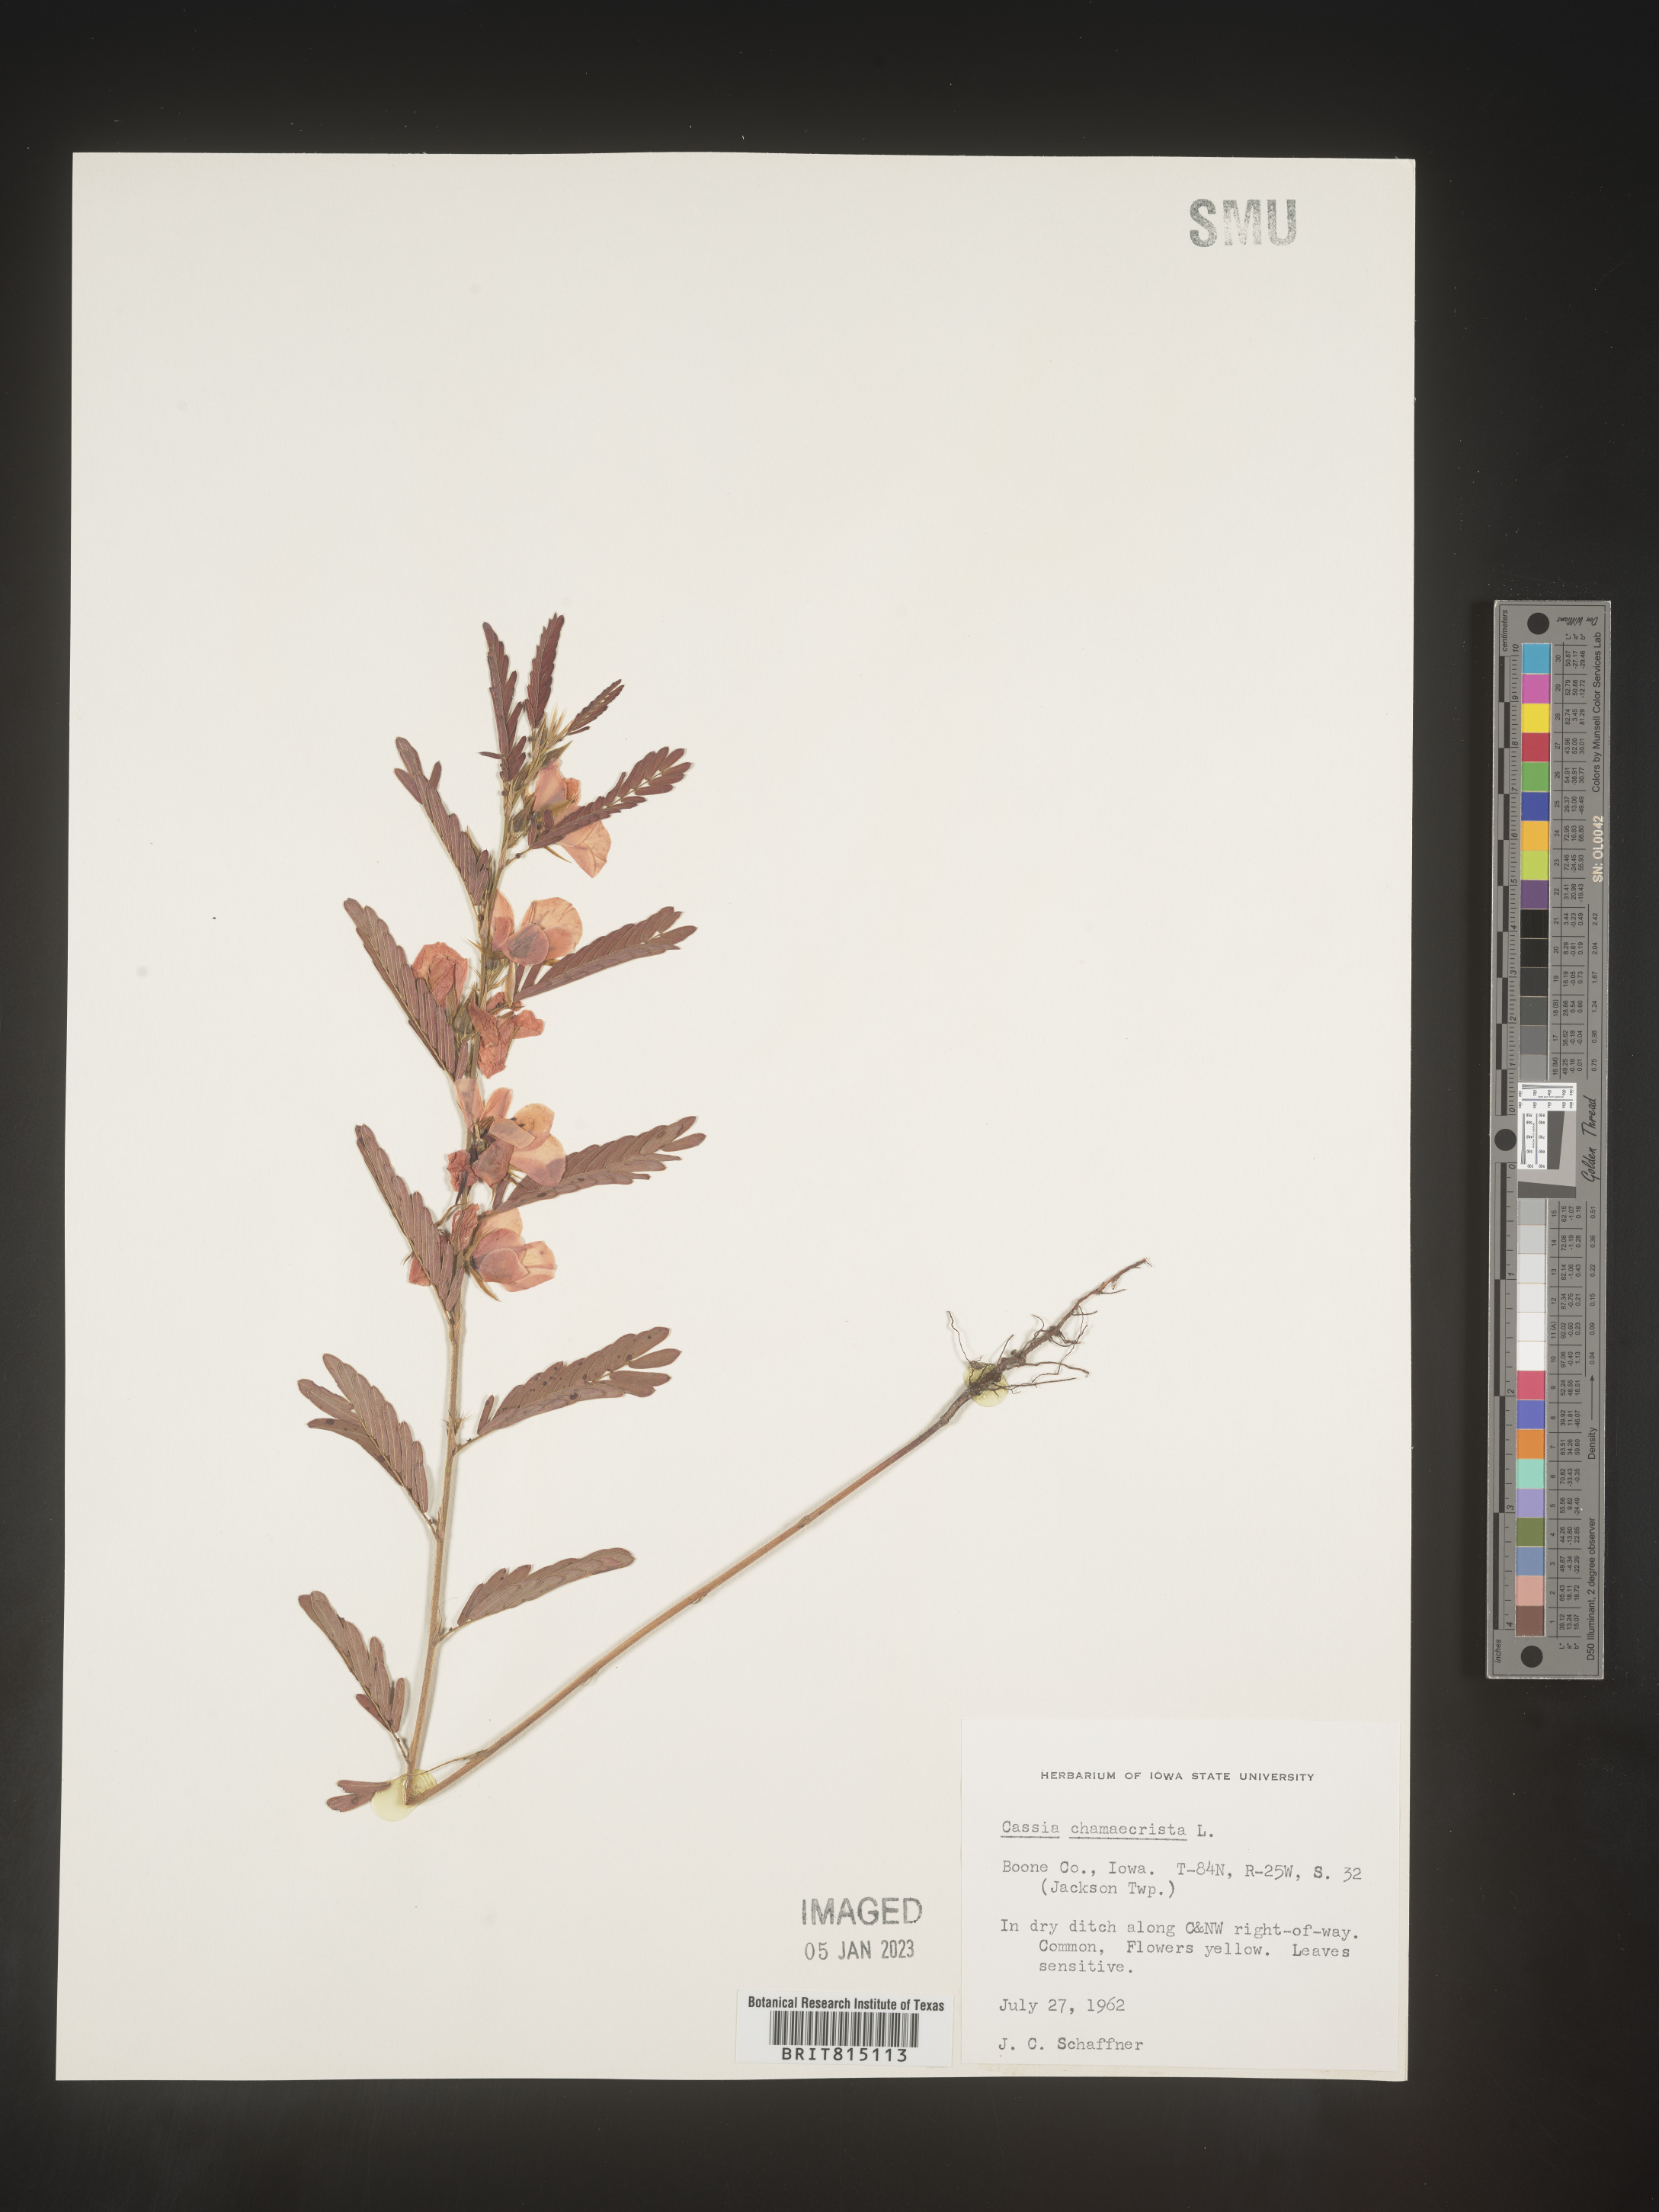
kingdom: Plantae
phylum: Tracheophyta
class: Magnoliopsida
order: Fabales
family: Fabaceae
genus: Chamaecrista
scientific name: Chamaecrista fasciculata
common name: Golden cassia
